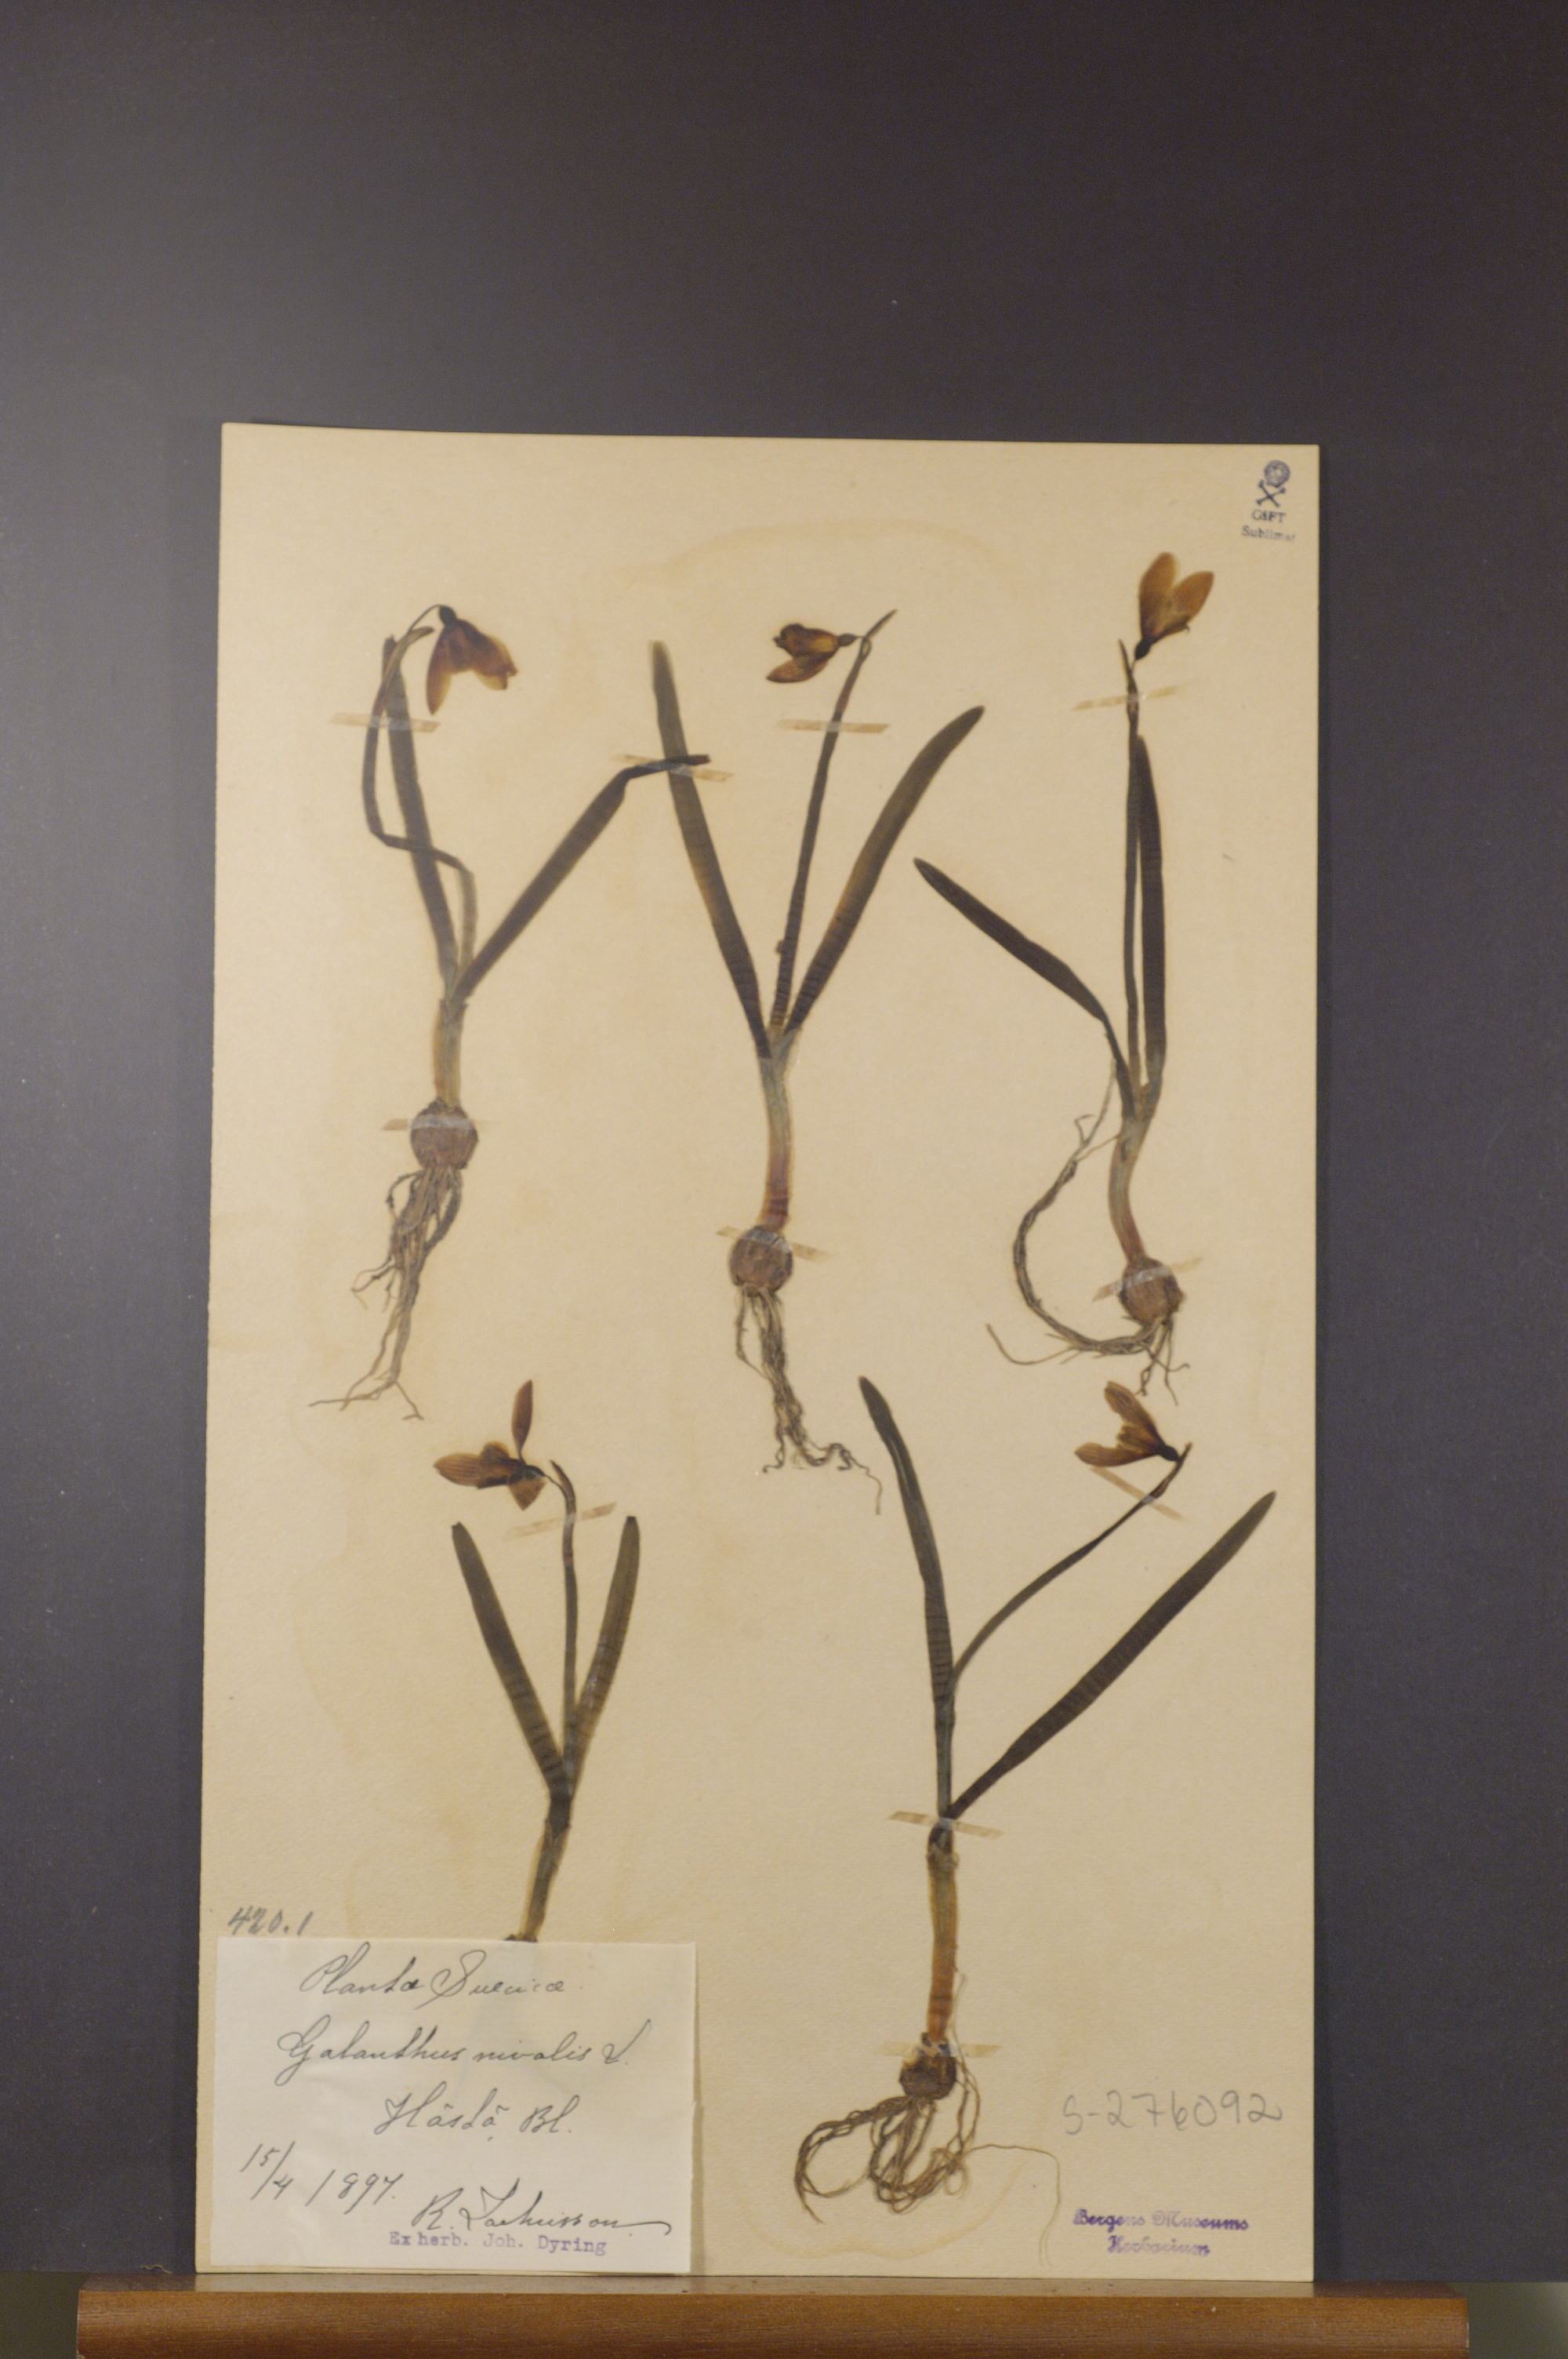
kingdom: Plantae
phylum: Tracheophyta
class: Liliopsida
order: Asparagales
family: Amaryllidaceae
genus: Galanthus
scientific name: Galanthus nivalis
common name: Snowdrop
